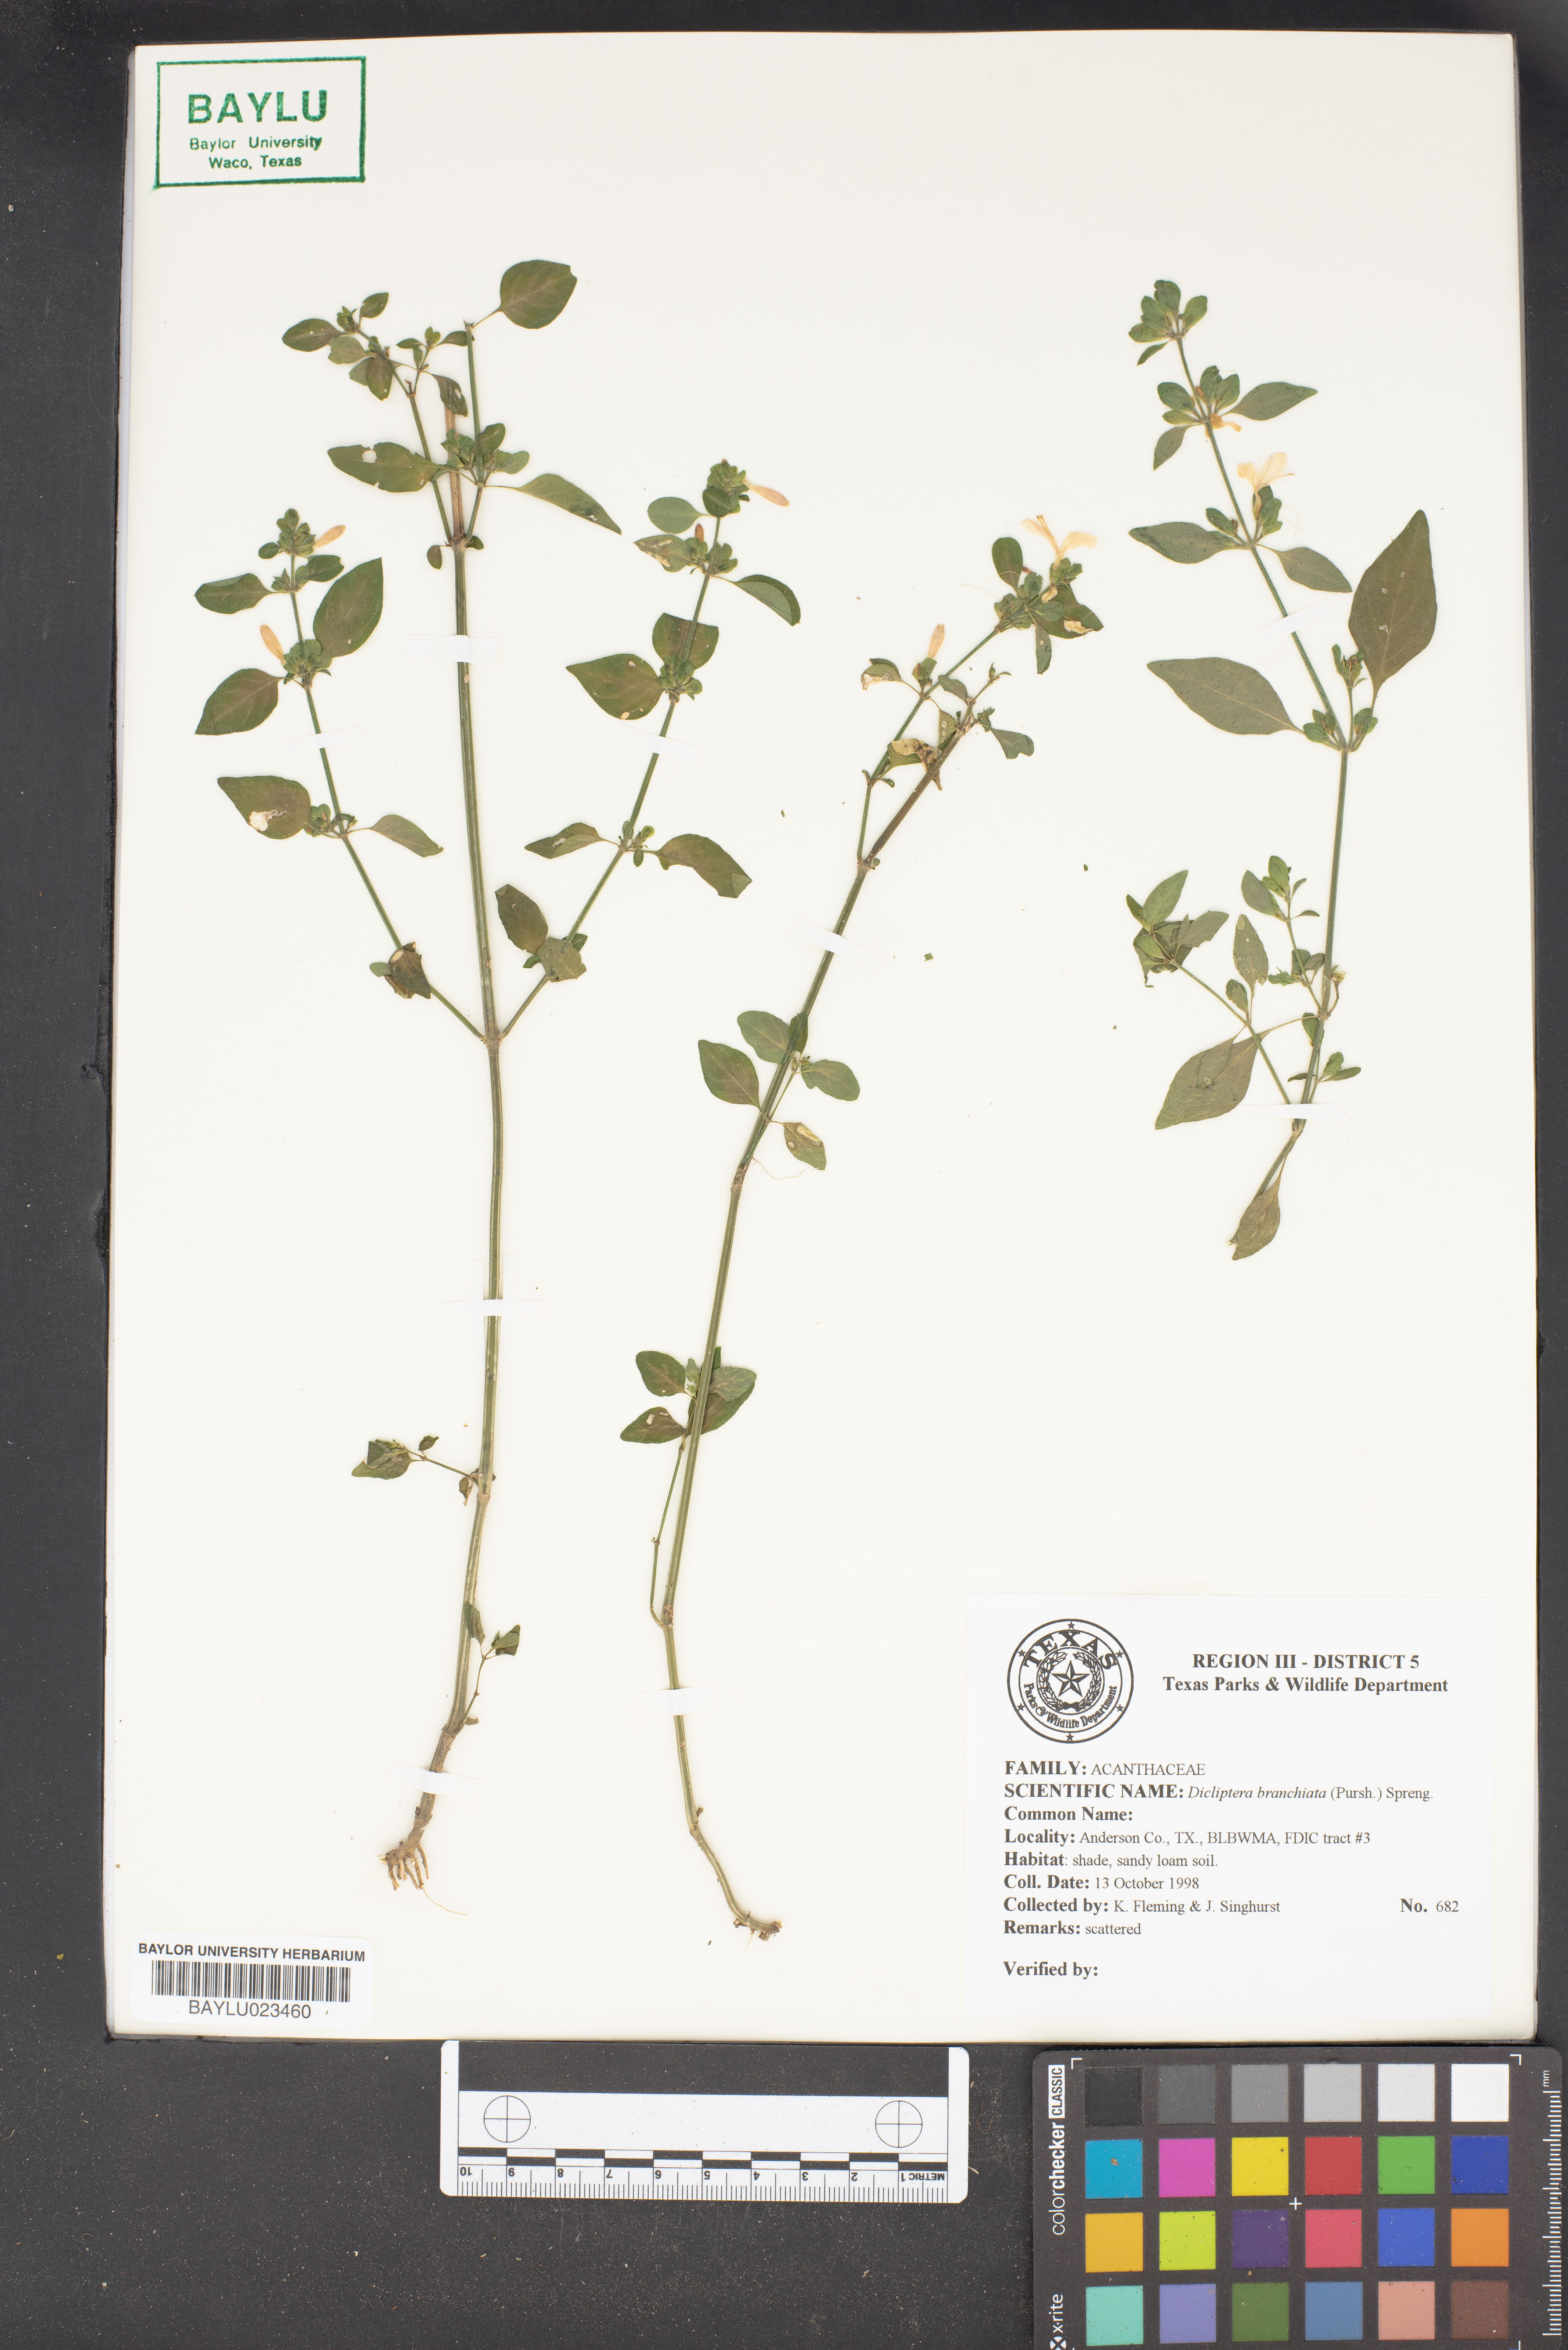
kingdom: Plantae
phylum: Tracheophyta
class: Magnoliopsida
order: Lamiales
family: Acanthaceae
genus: Dicliptera
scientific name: Dicliptera brachiata
